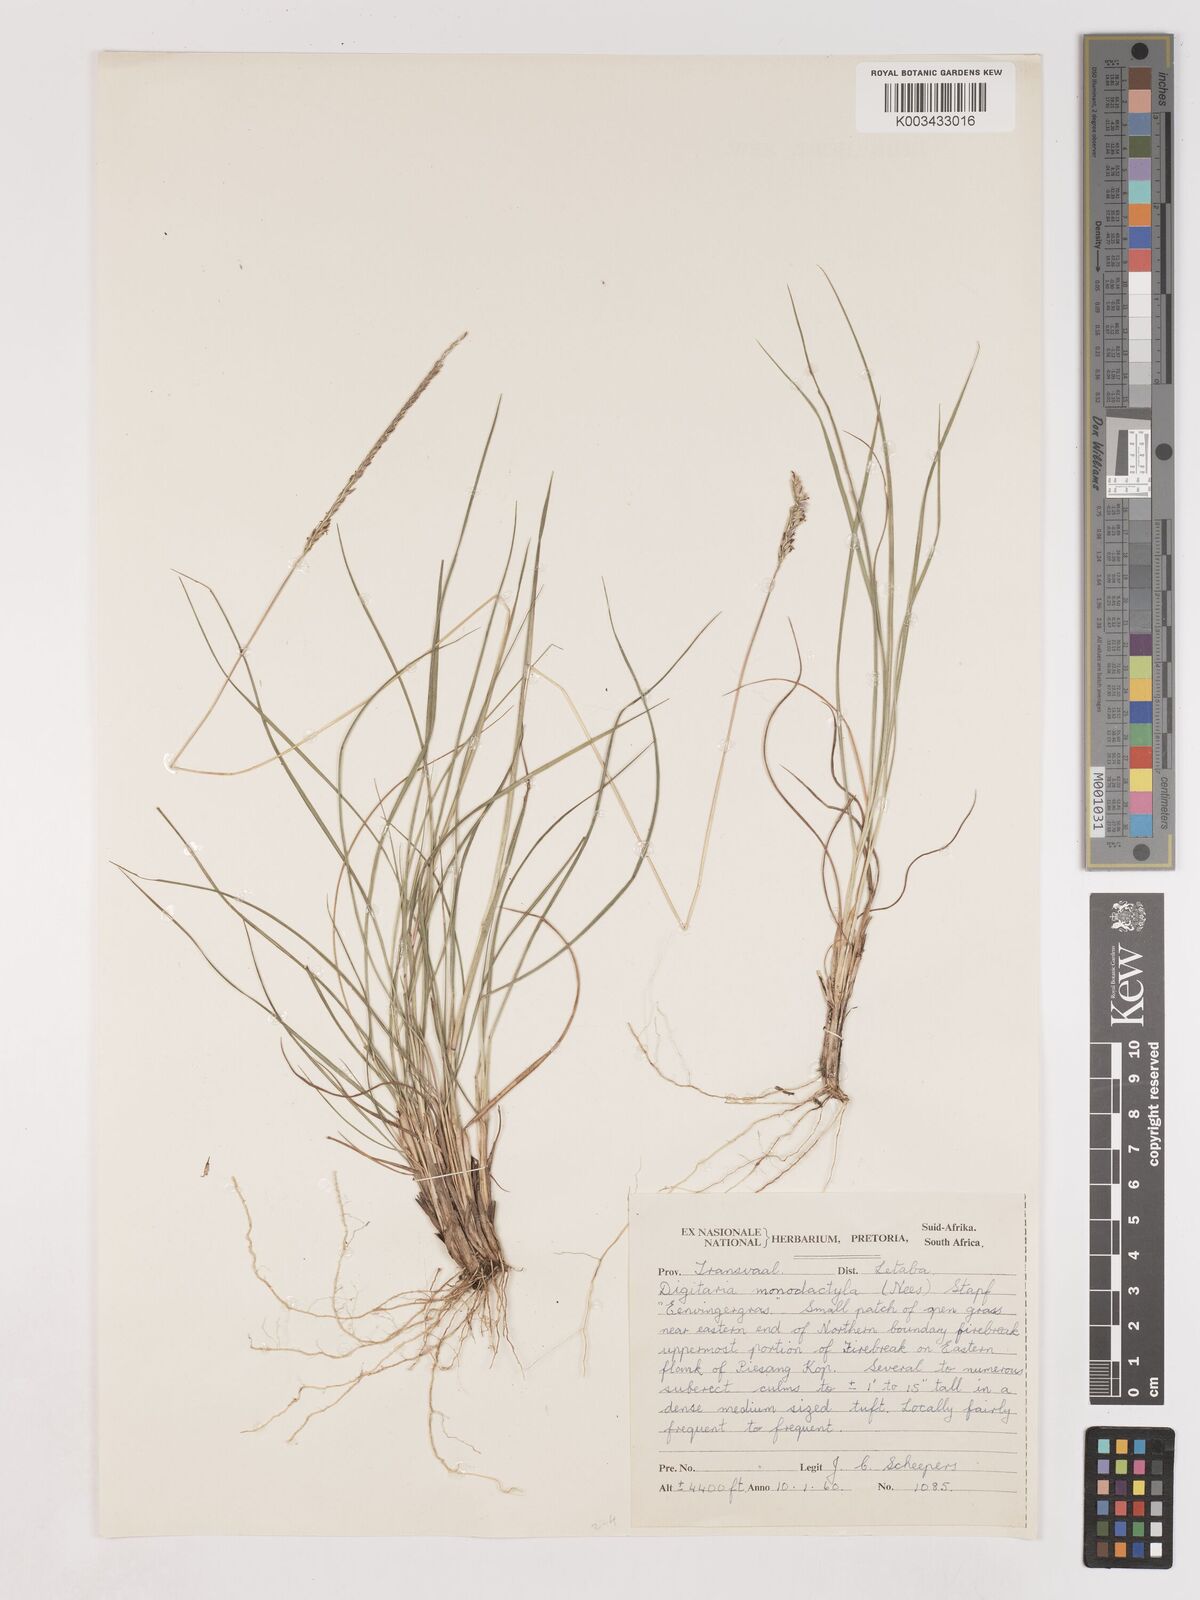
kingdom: Plantae
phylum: Tracheophyta
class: Liliopsida
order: Poales
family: Poaceae
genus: Digitaria
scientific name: Digitaria monodactyla
